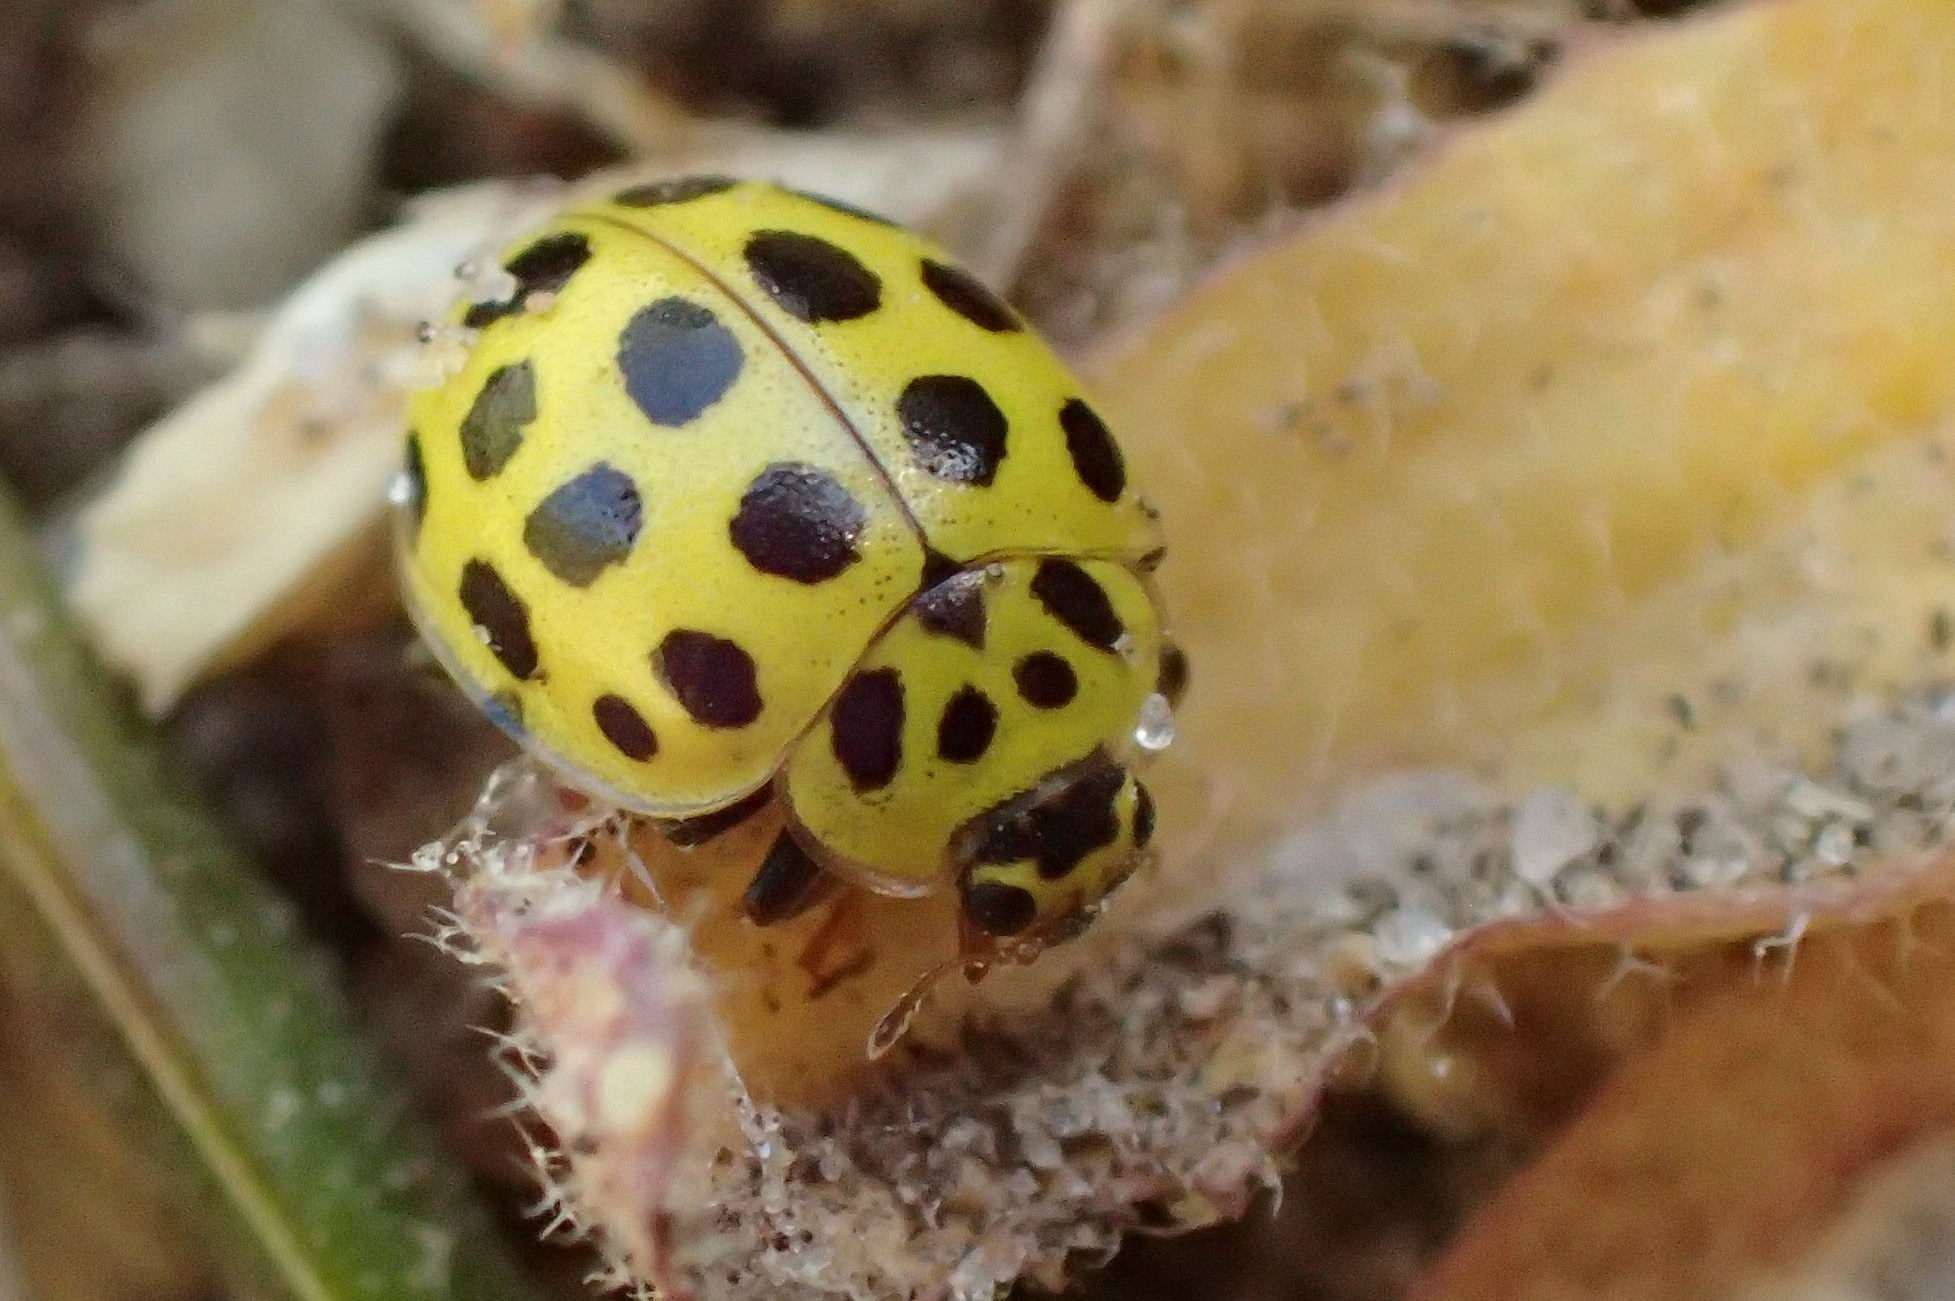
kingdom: Animalia
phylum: Arthropoda
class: Insecta
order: Coleoptera
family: Coccinellidae
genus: Psyllobora
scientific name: Psyllobora vigintiduopunctata
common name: Toogtyveplettet mariehøne
